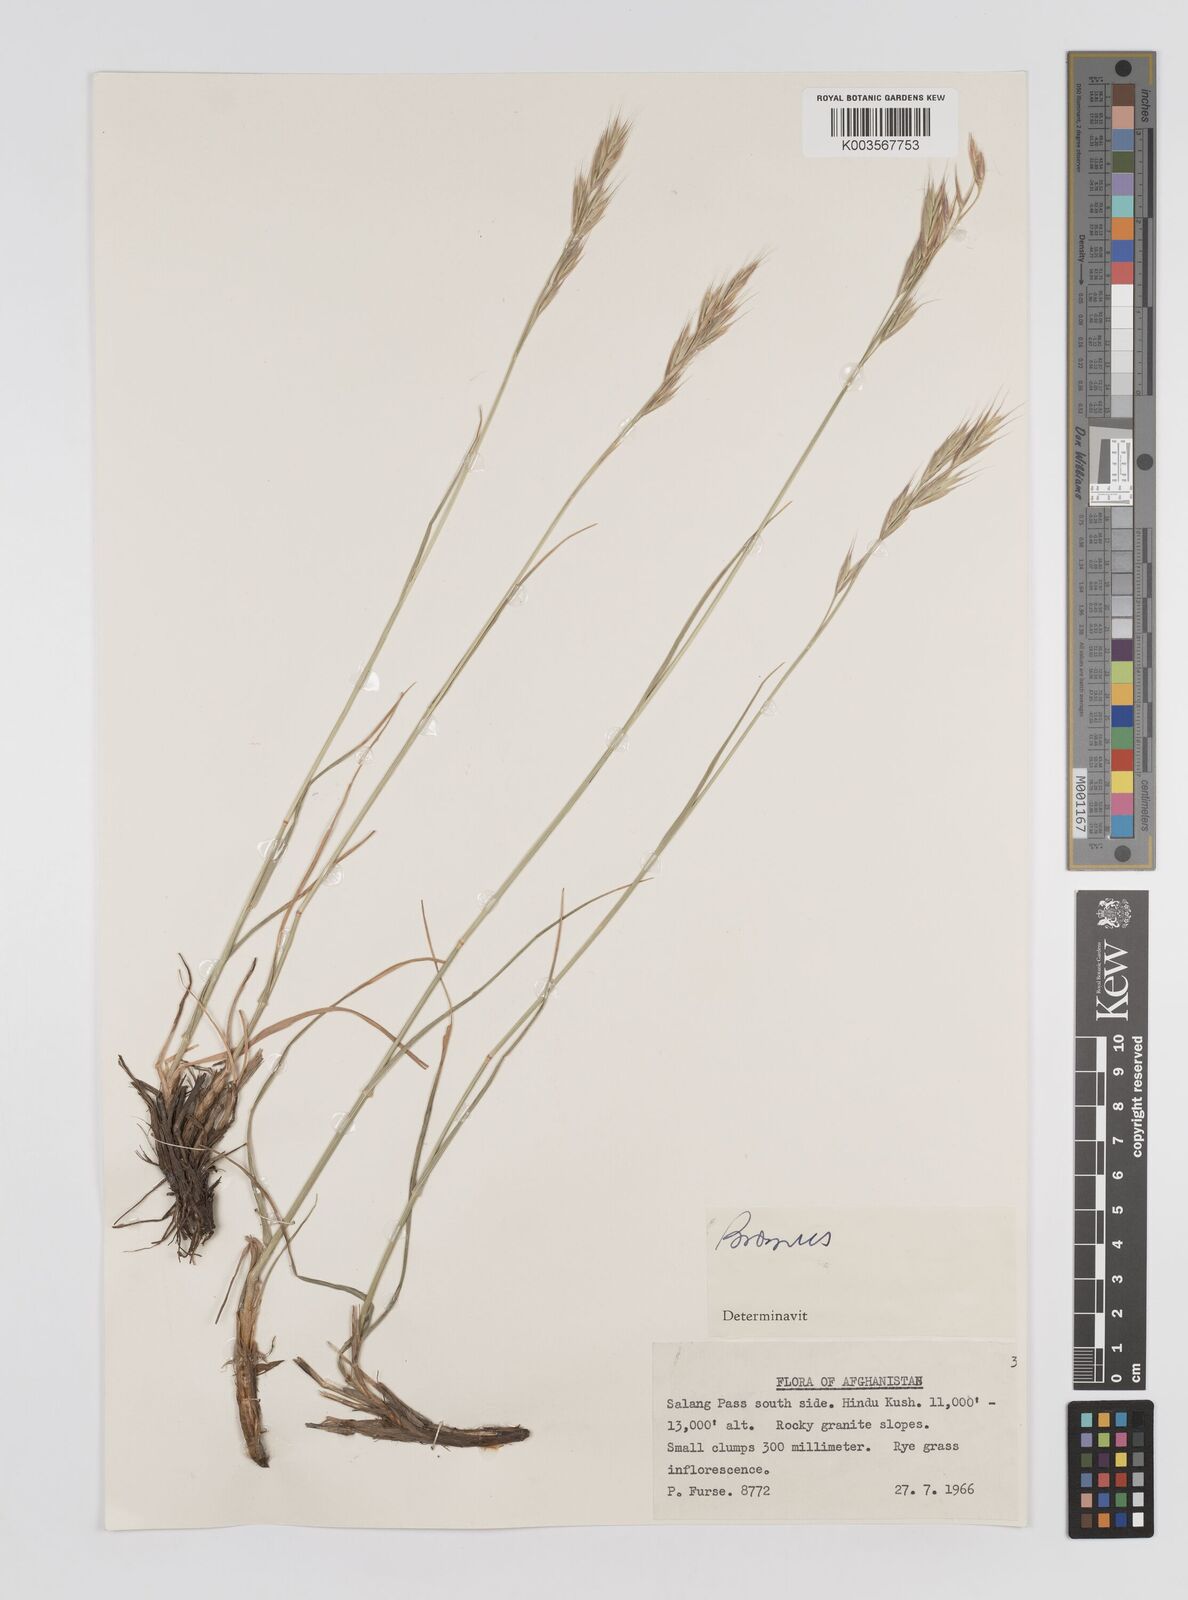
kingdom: Plantae
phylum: Tracheophyta
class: Liliopsida
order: Poales
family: Poaceae
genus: Bromus
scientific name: Bromus
